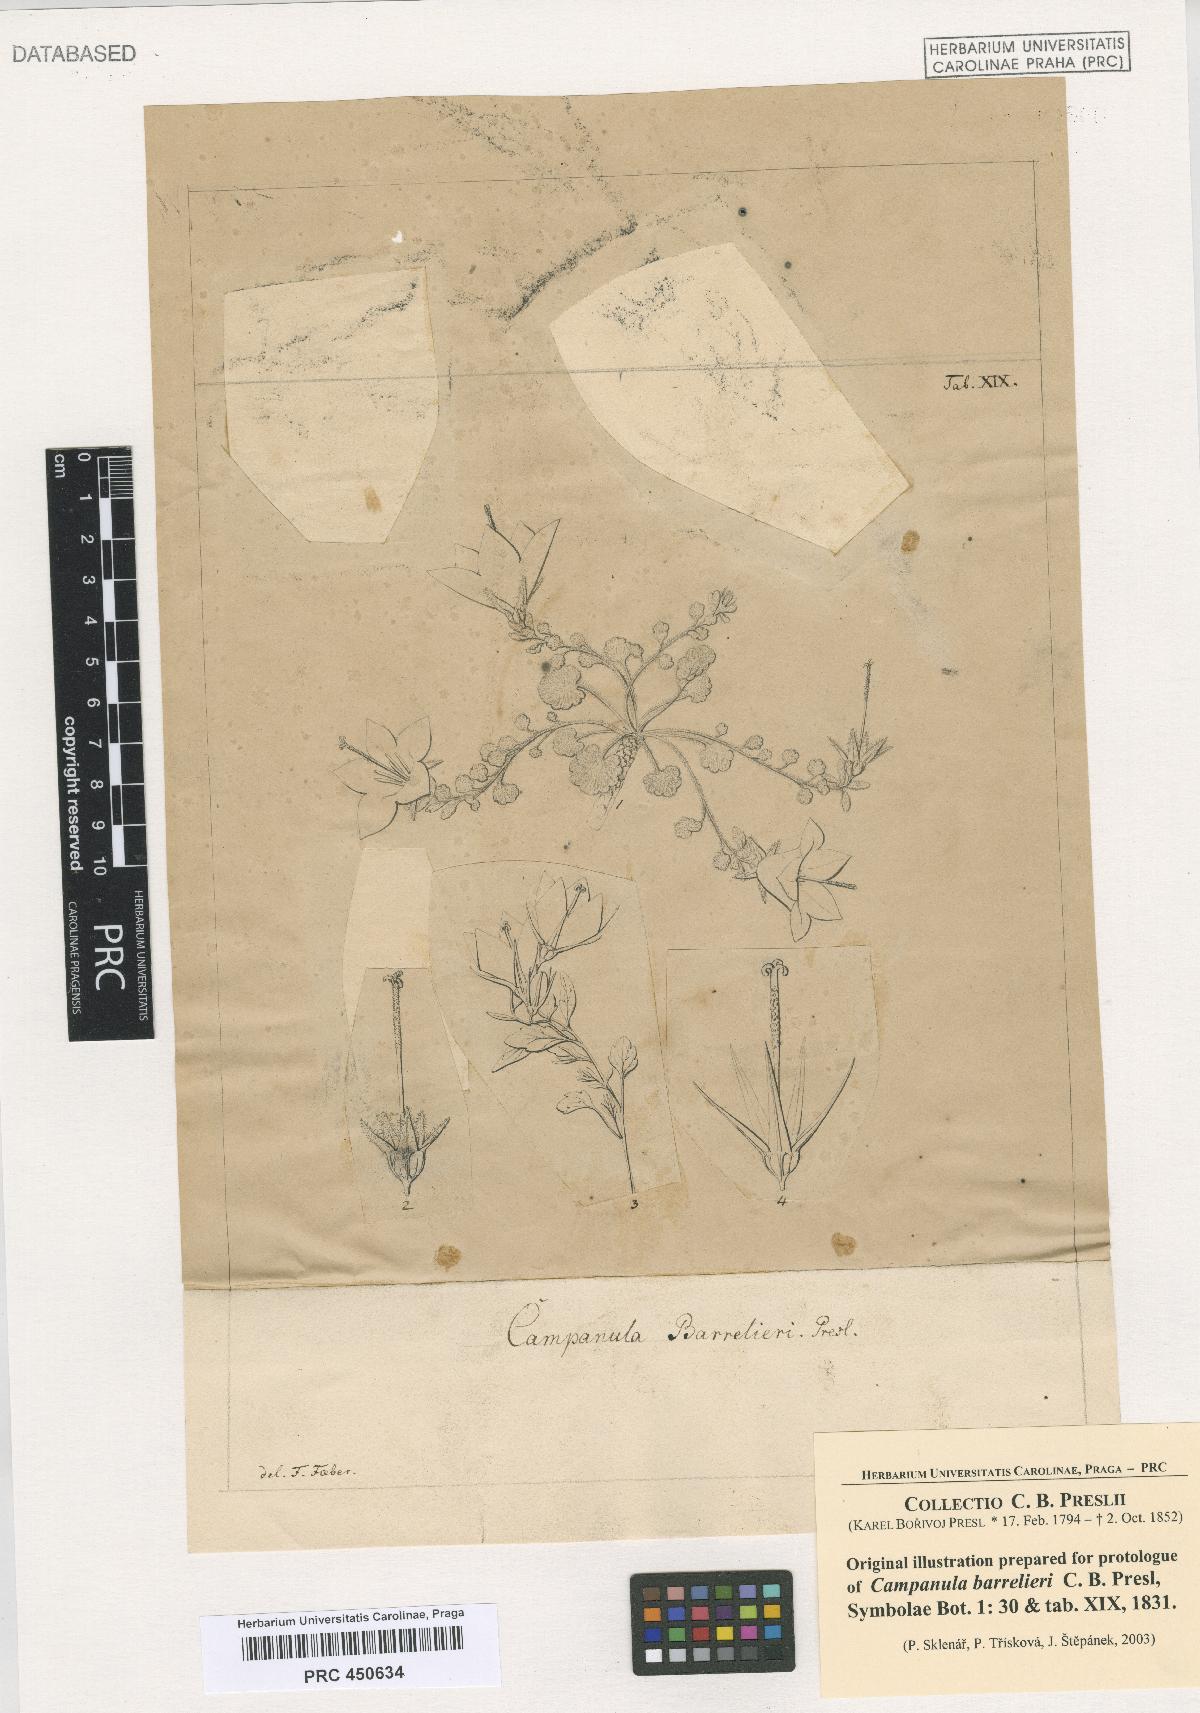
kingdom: Plantae
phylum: Tracheophyta
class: Magnoliopsida
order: Asterales
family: Campanulaceae
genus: Campanula
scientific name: Campanula fragilis
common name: Italian bellflower
